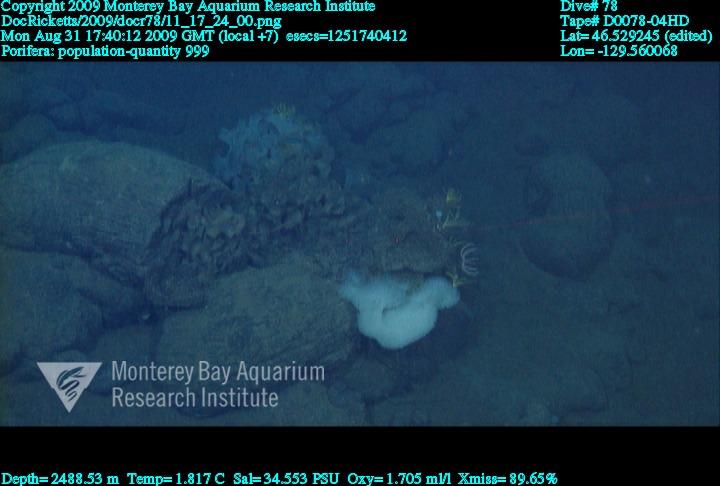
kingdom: Animalia
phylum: Porifera
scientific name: Porifera
